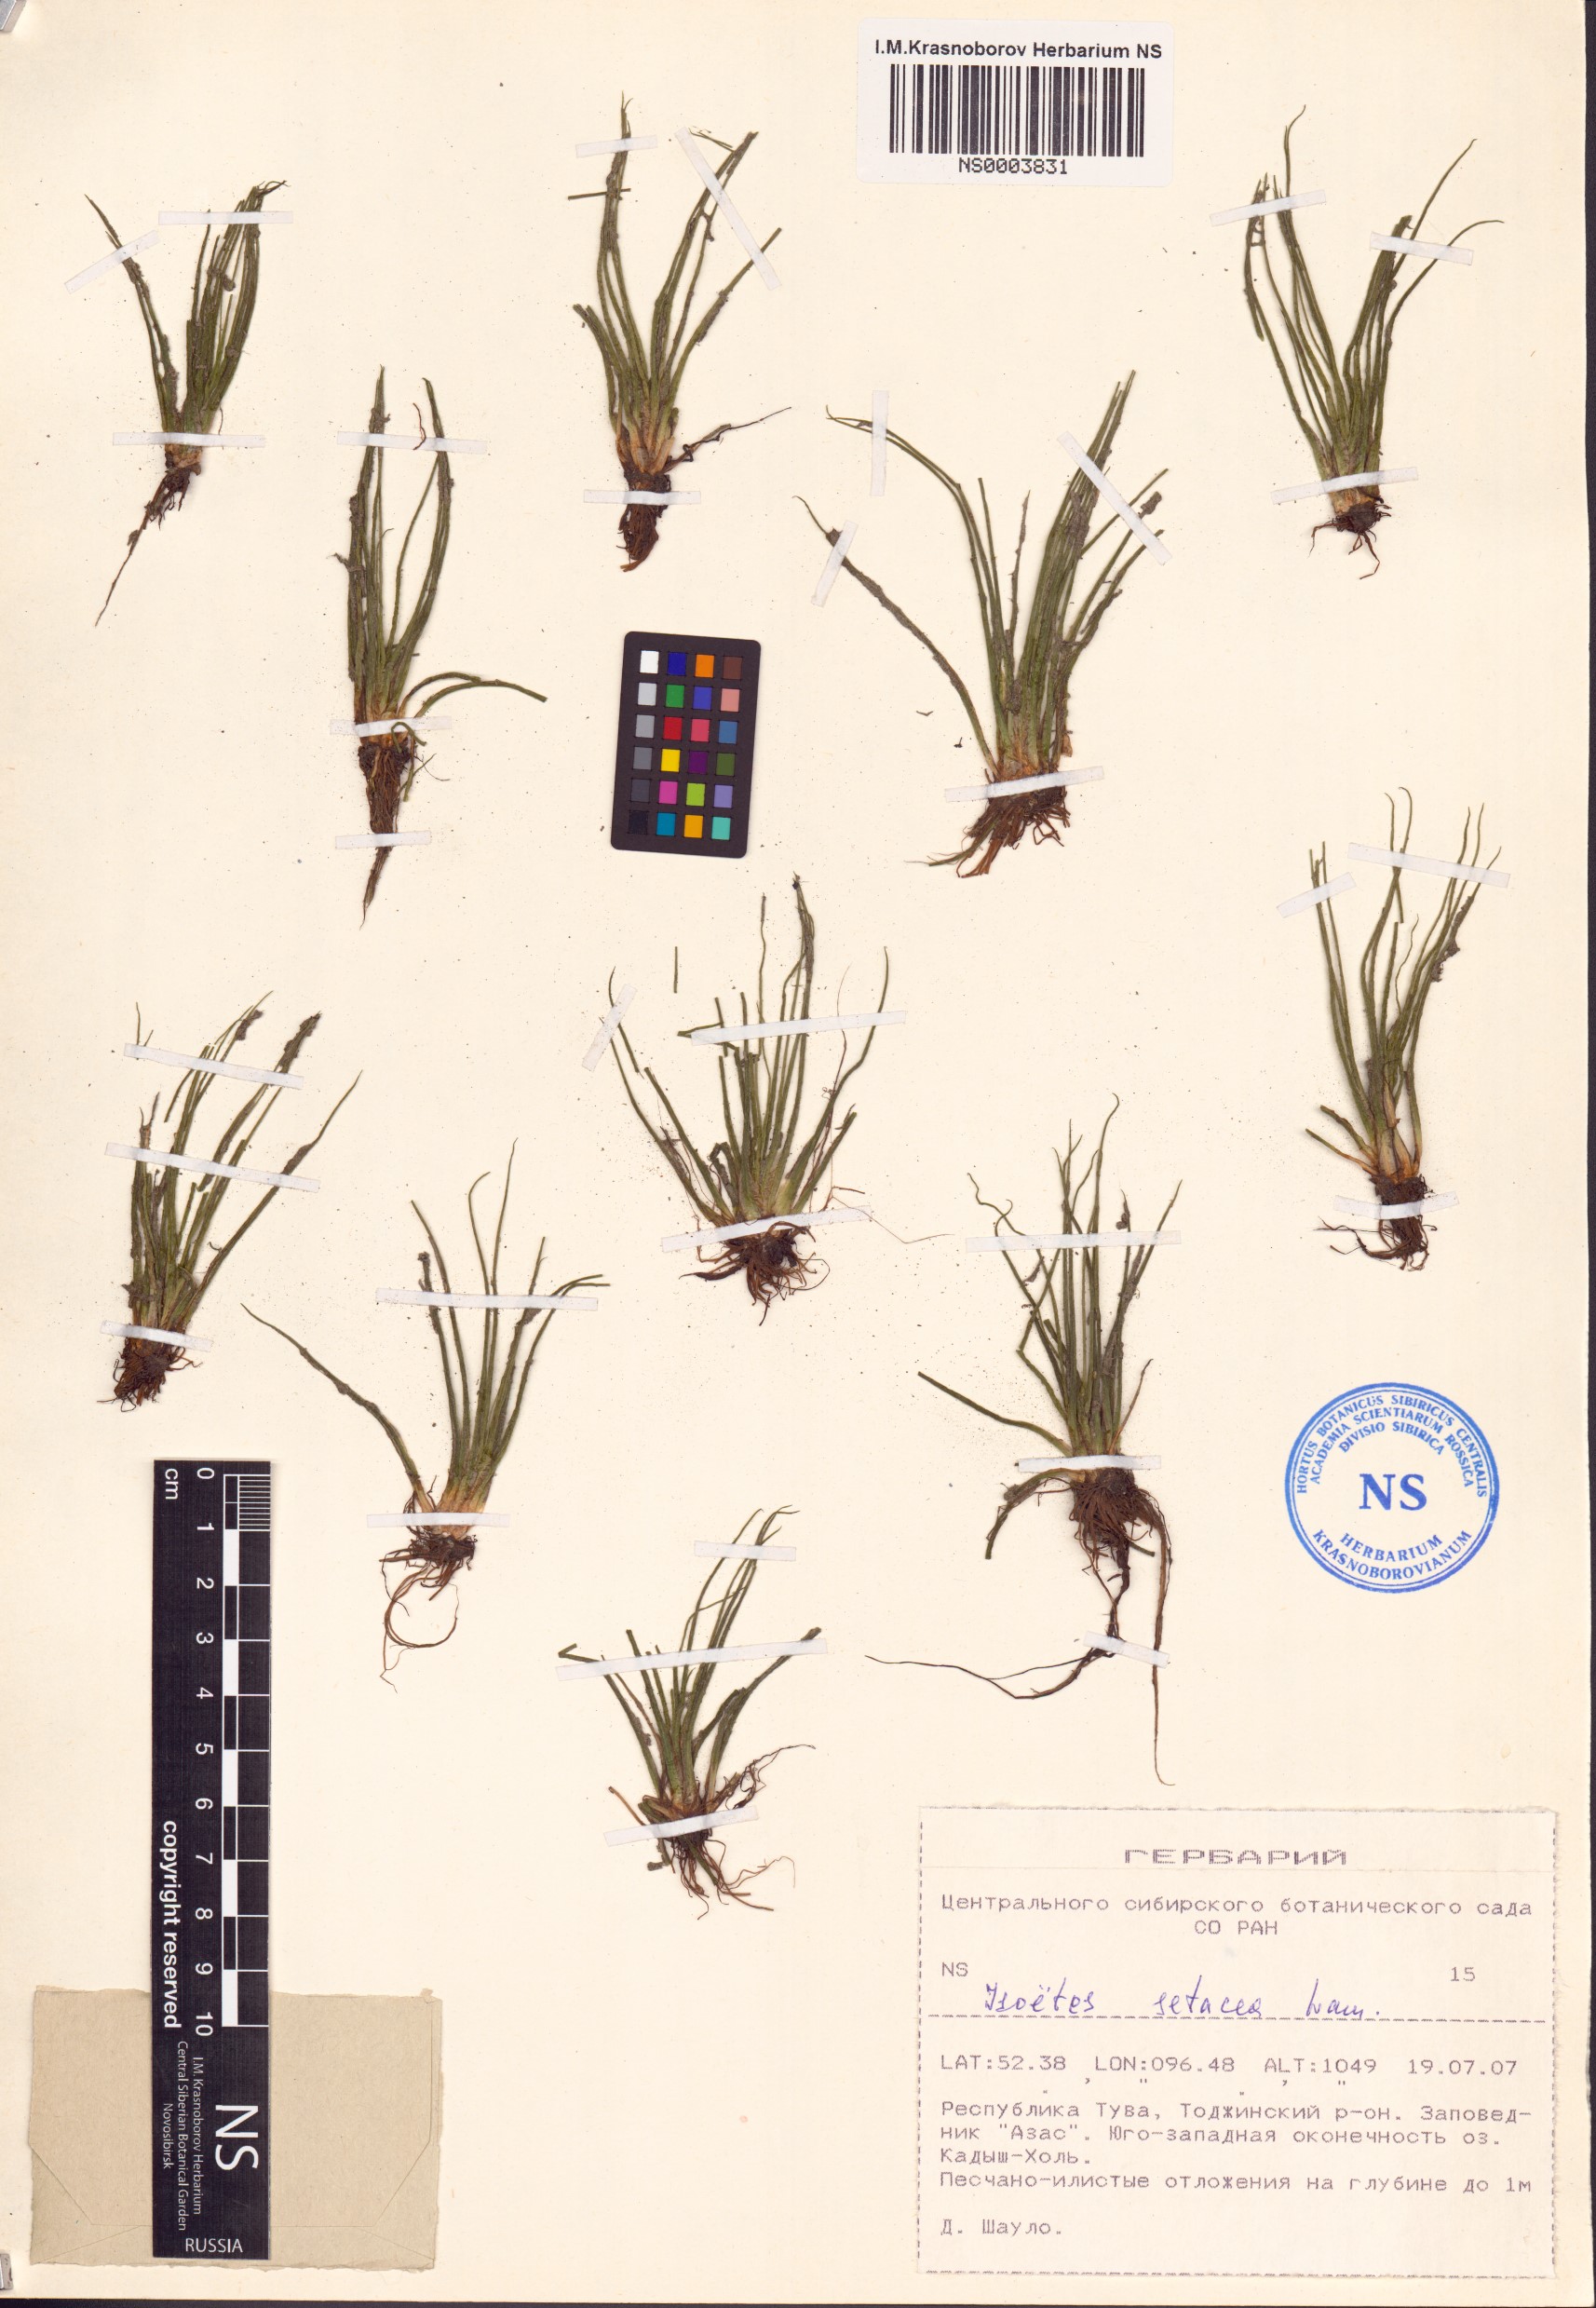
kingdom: Plantae
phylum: Tracheophyta
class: Lycopodiopsida
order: Isoetales
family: Isoetaceae
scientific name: Isoetaceae
